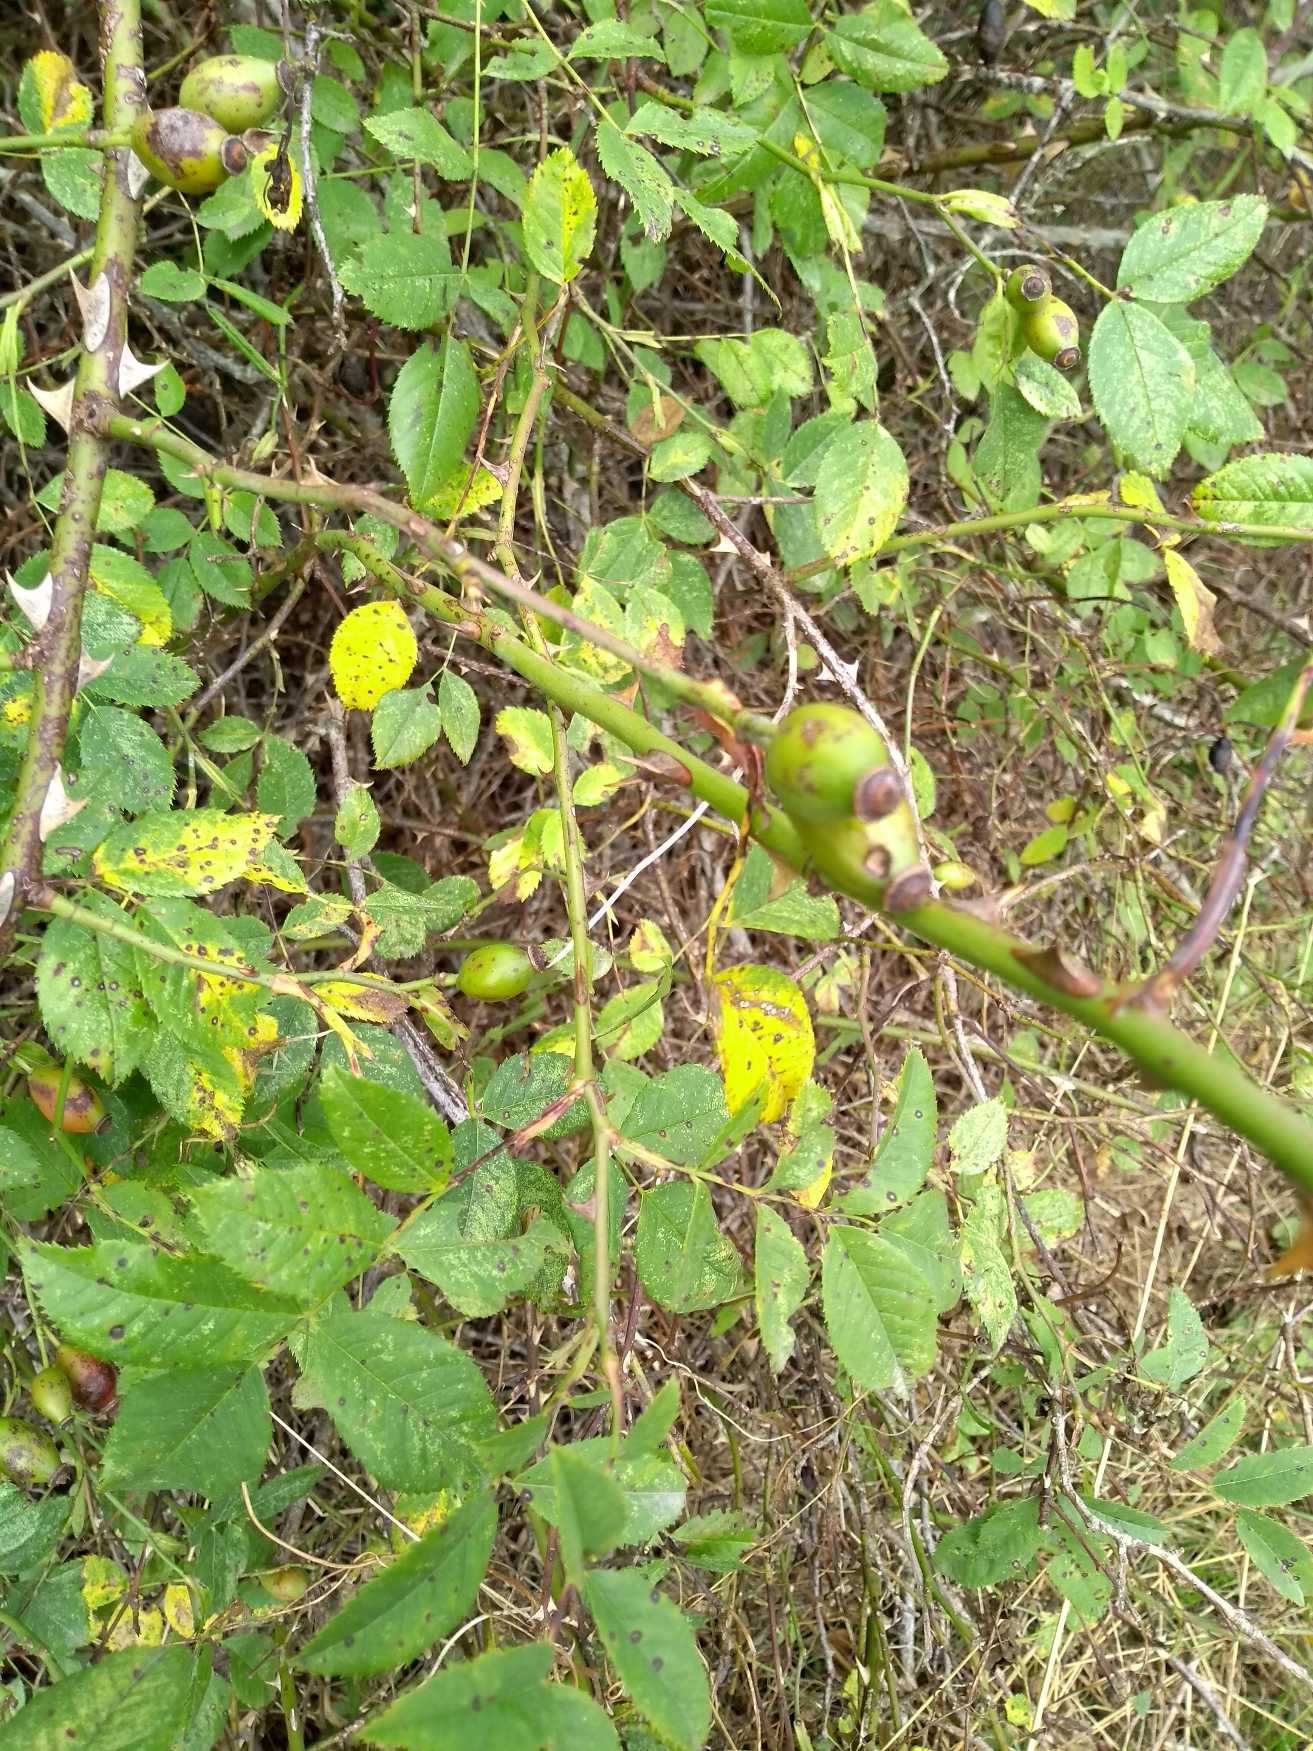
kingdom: Plantae
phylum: Tracheophyta
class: Magnoliopsida
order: Rosales
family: Rosaceae
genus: Rosa
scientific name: Rosa canina
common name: Glat hunde-rose
